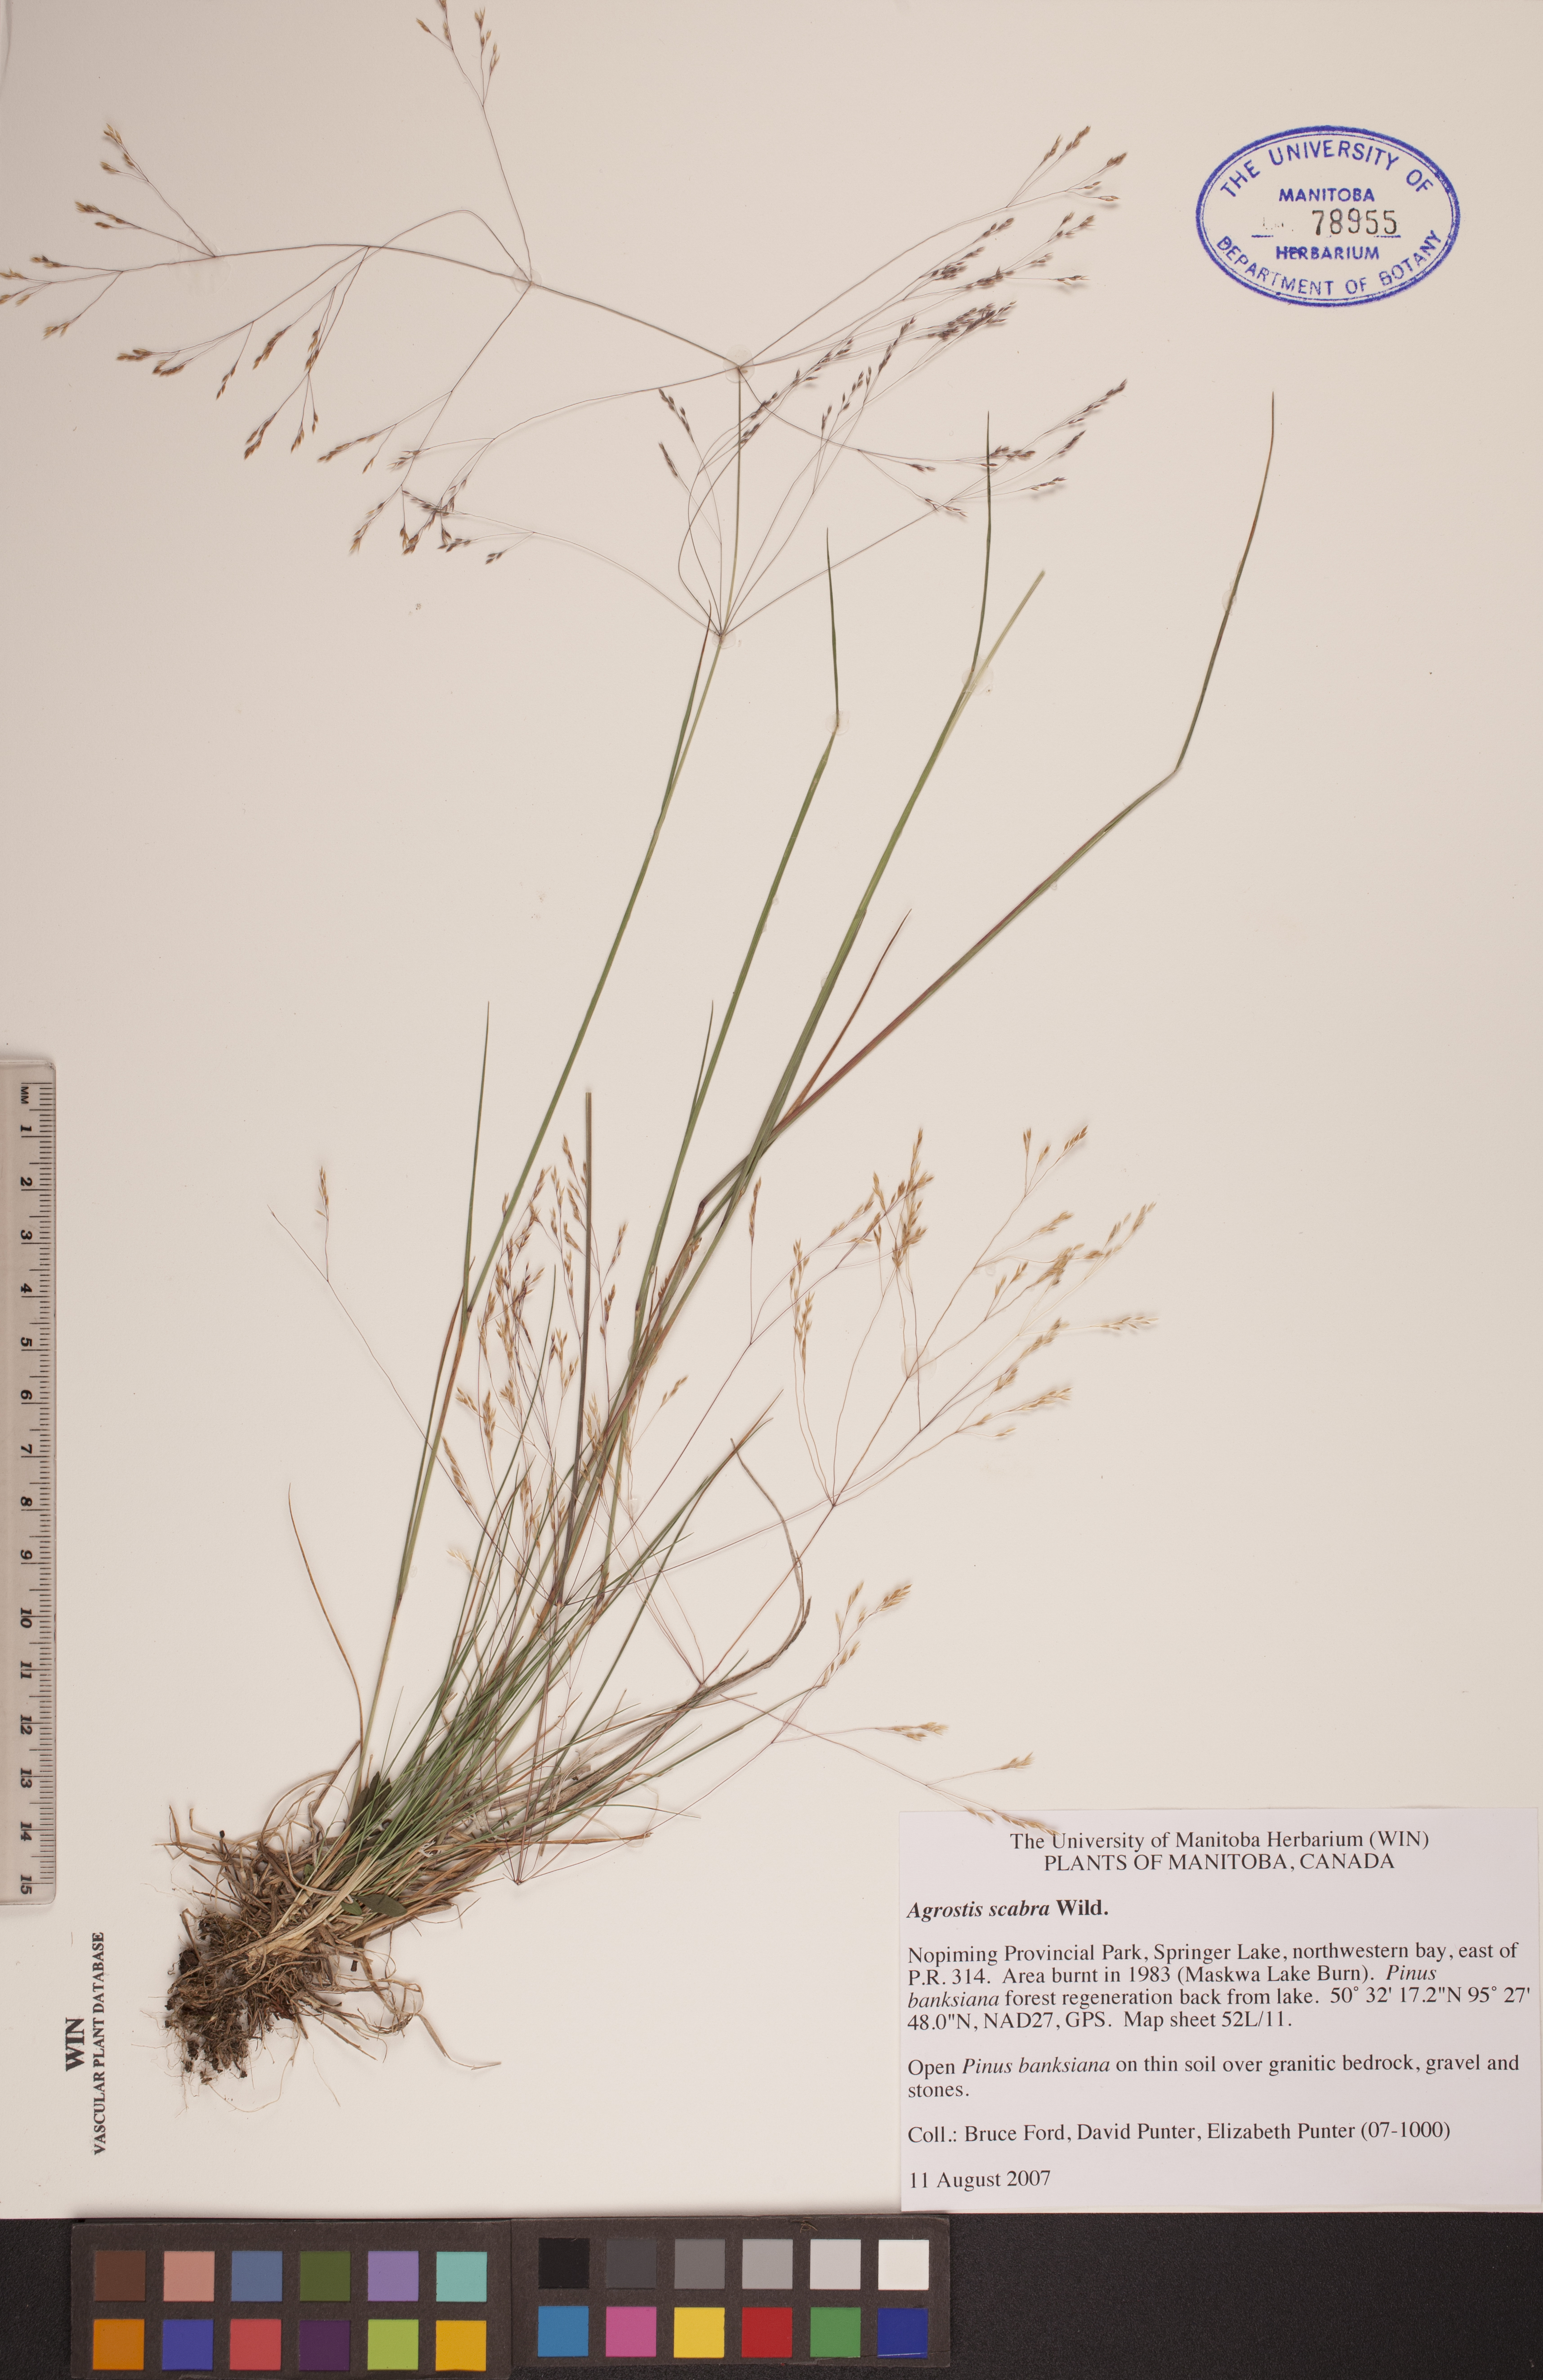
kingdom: Plantae
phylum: Tracheophyta
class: Liliopsida
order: Poales
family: Poaceae
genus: Agrostis
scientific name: Agrostis scabra
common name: Rough bent
